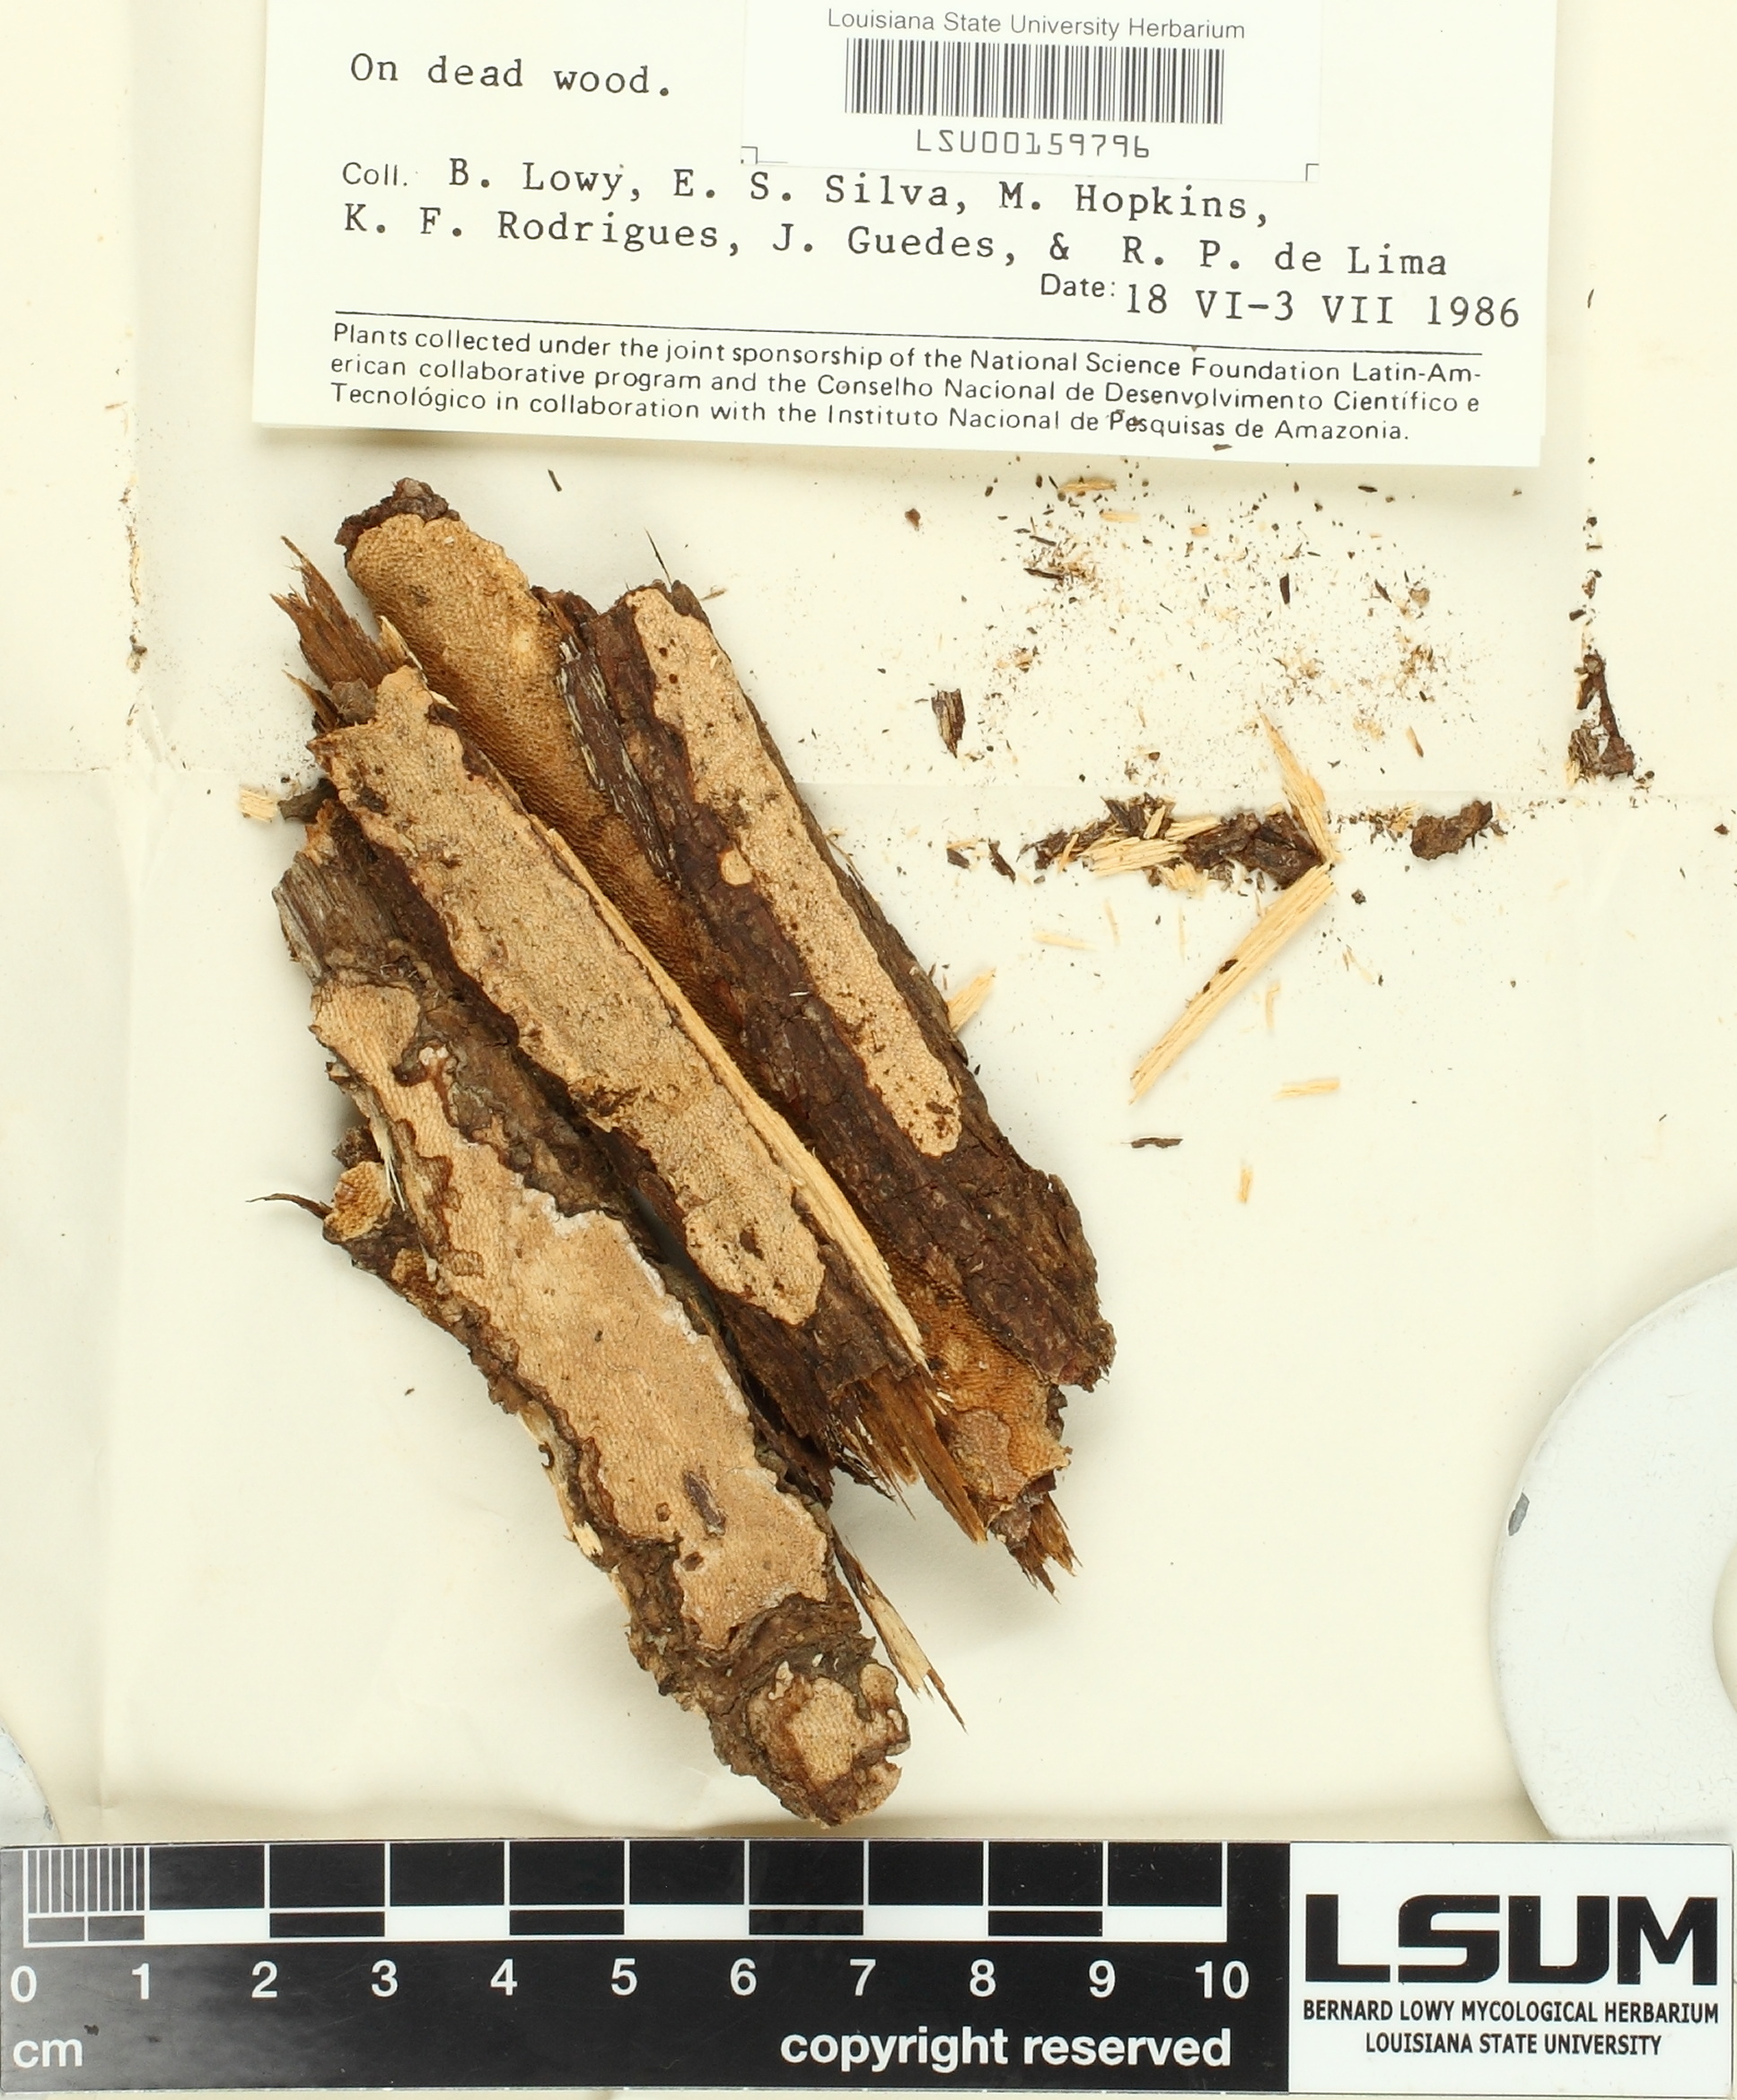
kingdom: Fungi
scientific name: Fungi
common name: Fungi
